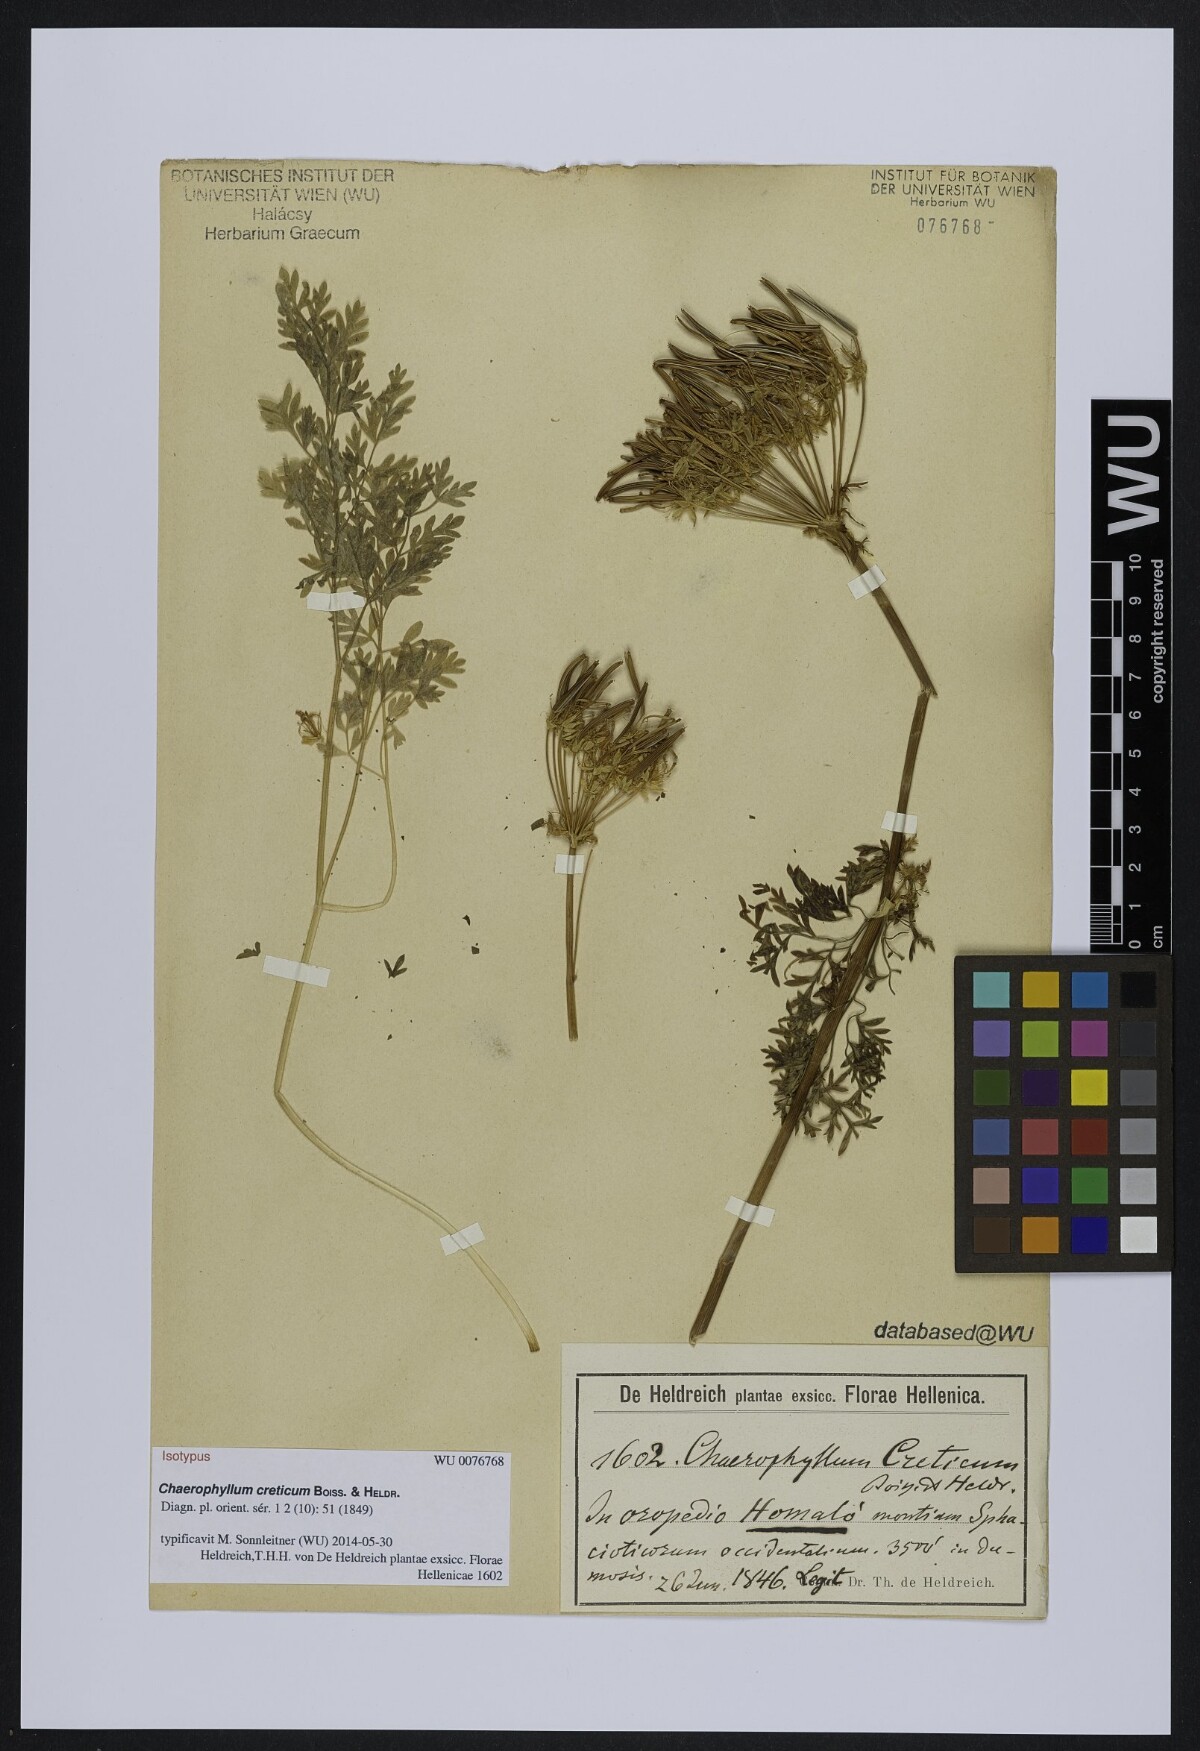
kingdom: Plantae
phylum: Tracheophyta
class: Magnoliopsida
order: Apiales
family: Apiaceae
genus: Chaerophyllum
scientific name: Chaerophyllum creticum
